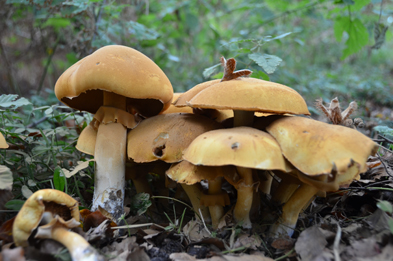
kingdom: Fungi
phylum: Basidiomycota
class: Agaricomycetes
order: Agaricales
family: Tricholomataceae
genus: Phaeolepiota
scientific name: Phaeolepiota aurea
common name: gyldenhat
